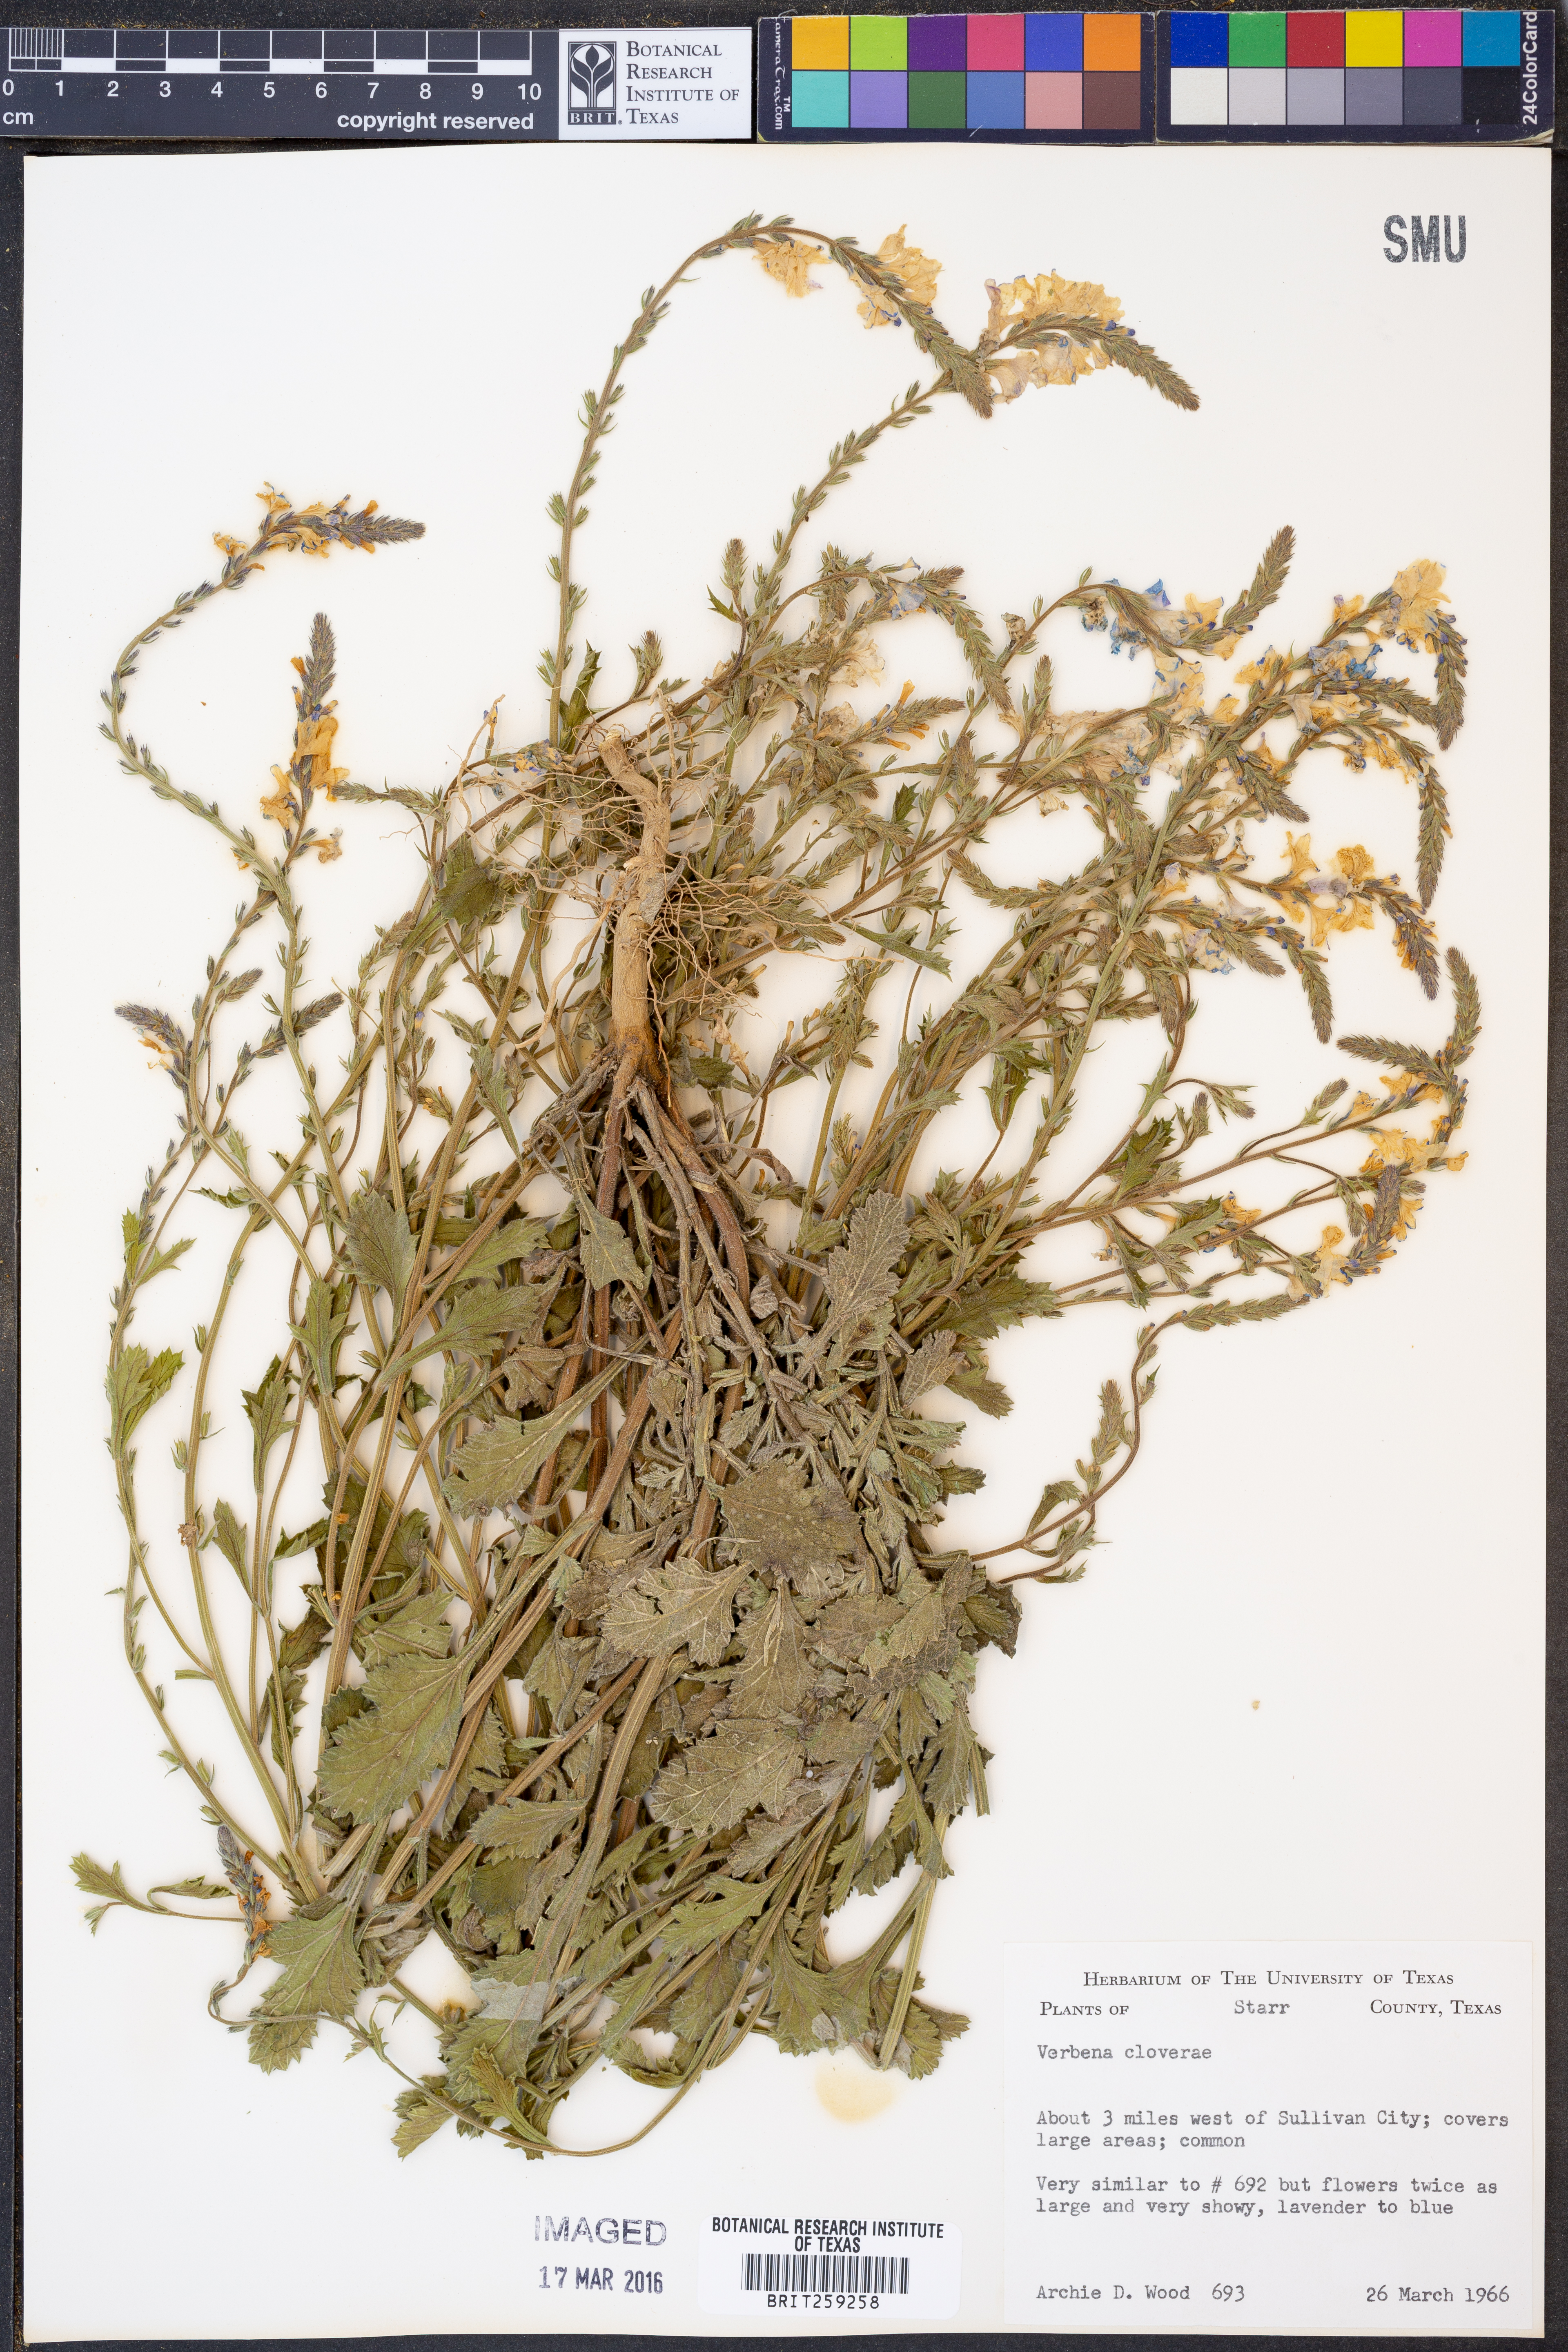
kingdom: Plantae
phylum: Tracheophyta
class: Magnoliopsida
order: Lamiales
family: Verbenaceae
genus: Verbena
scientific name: Verbena cloverae
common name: Clover's vervain
